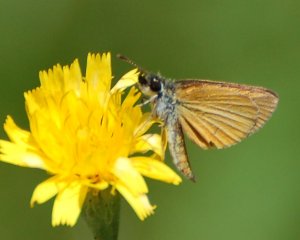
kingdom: Animalia
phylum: Arthropoda
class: Insecta
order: Lepidoptera
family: Hesperiidae
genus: Ancyloxypha
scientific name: Ancyloxypha numitor
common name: Least Skipper
